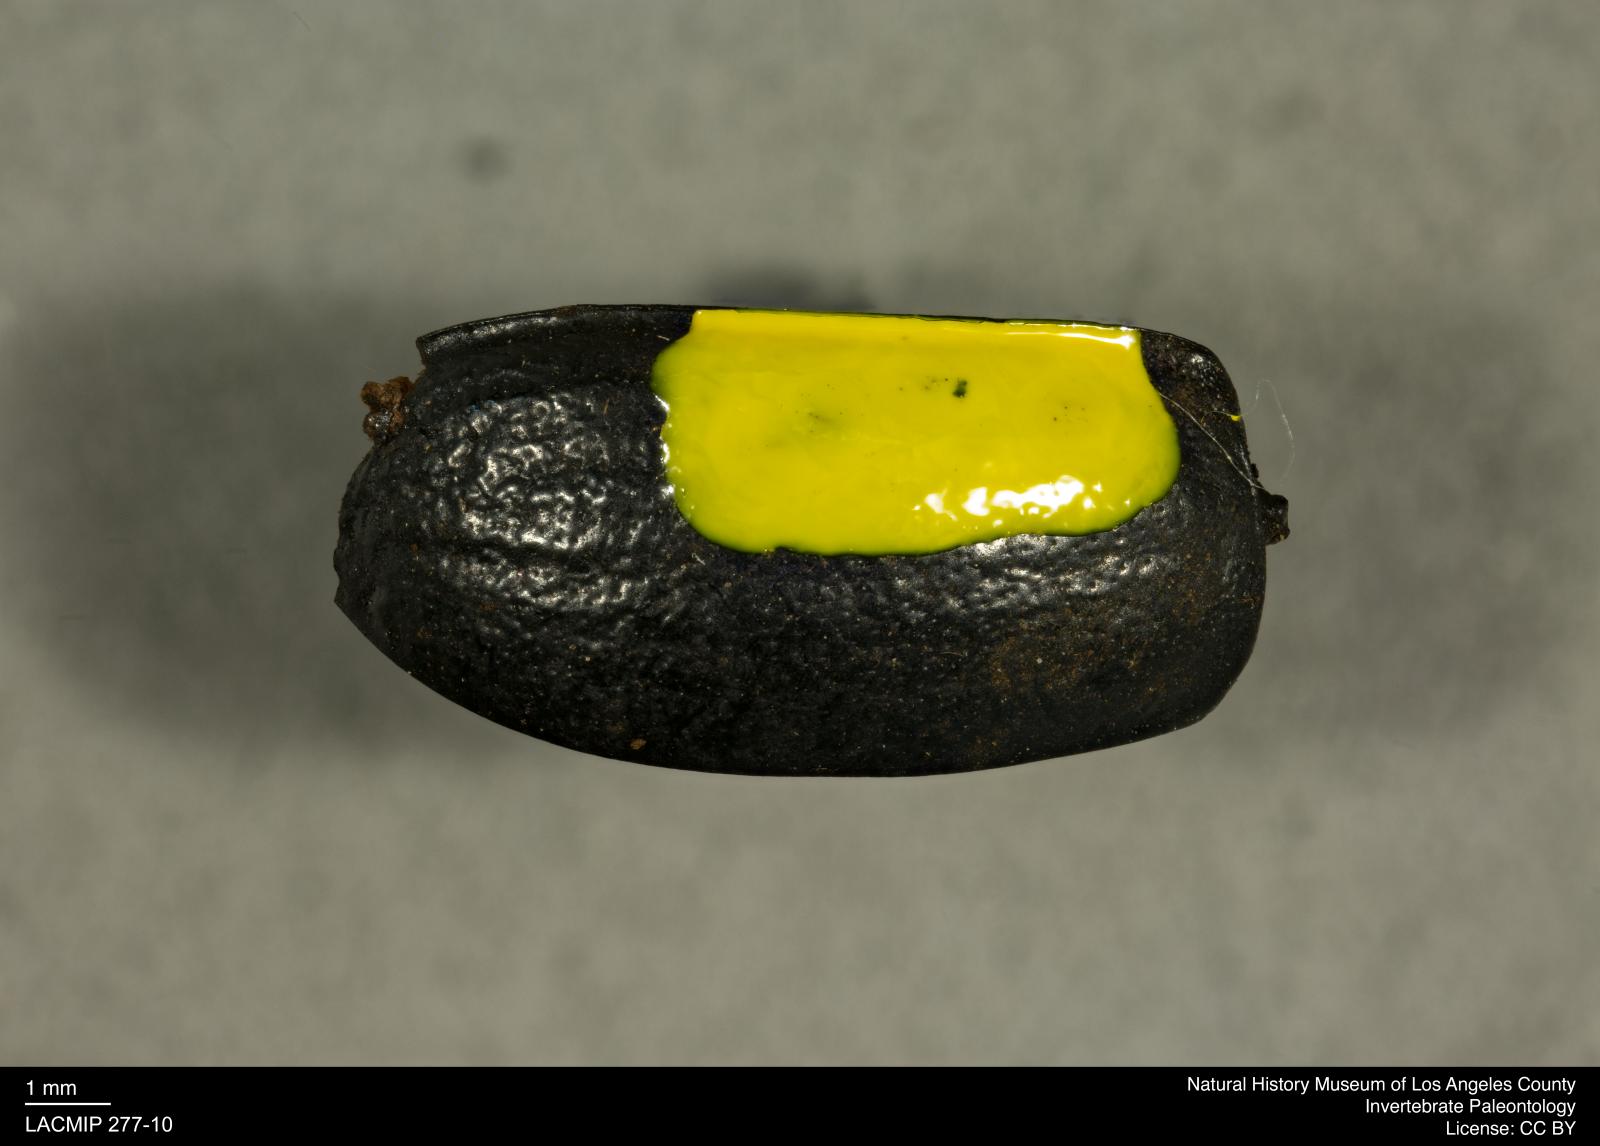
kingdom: Animalia
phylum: Arthropoda
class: Insecta
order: Coleoptera
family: Tenebrionidae
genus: Coniontis
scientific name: Coniontis abdominalis
